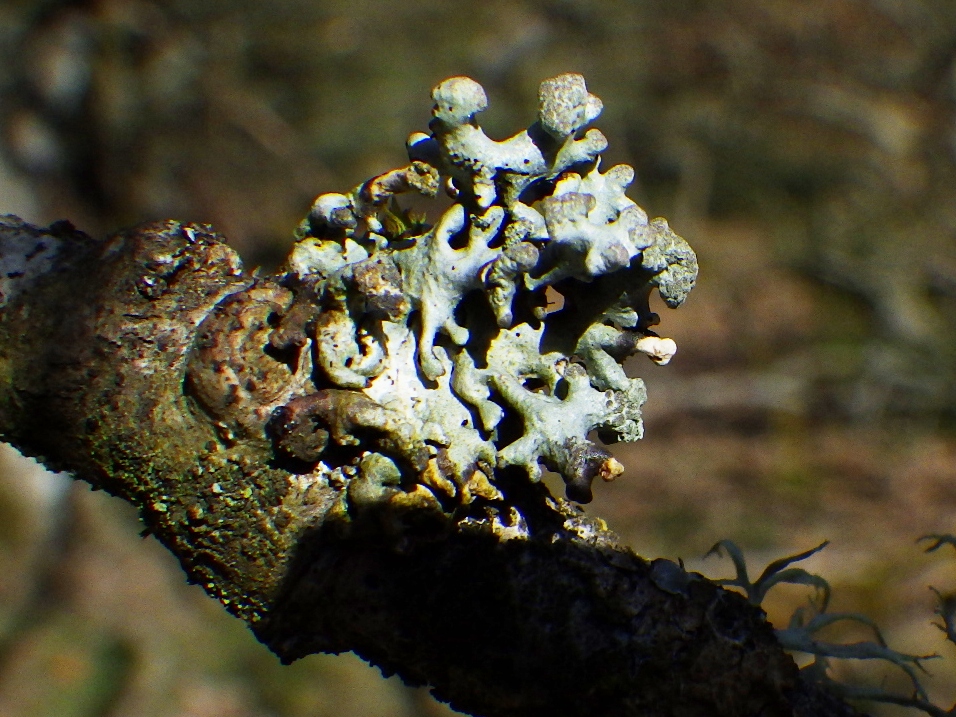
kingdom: Fungi
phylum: Ascomycota
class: Lecanoromycetes
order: Lecanorales
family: Parmeliaceae
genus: Hypogymnia
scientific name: Hypogymnia tubulosa
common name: finger-kvistlav
